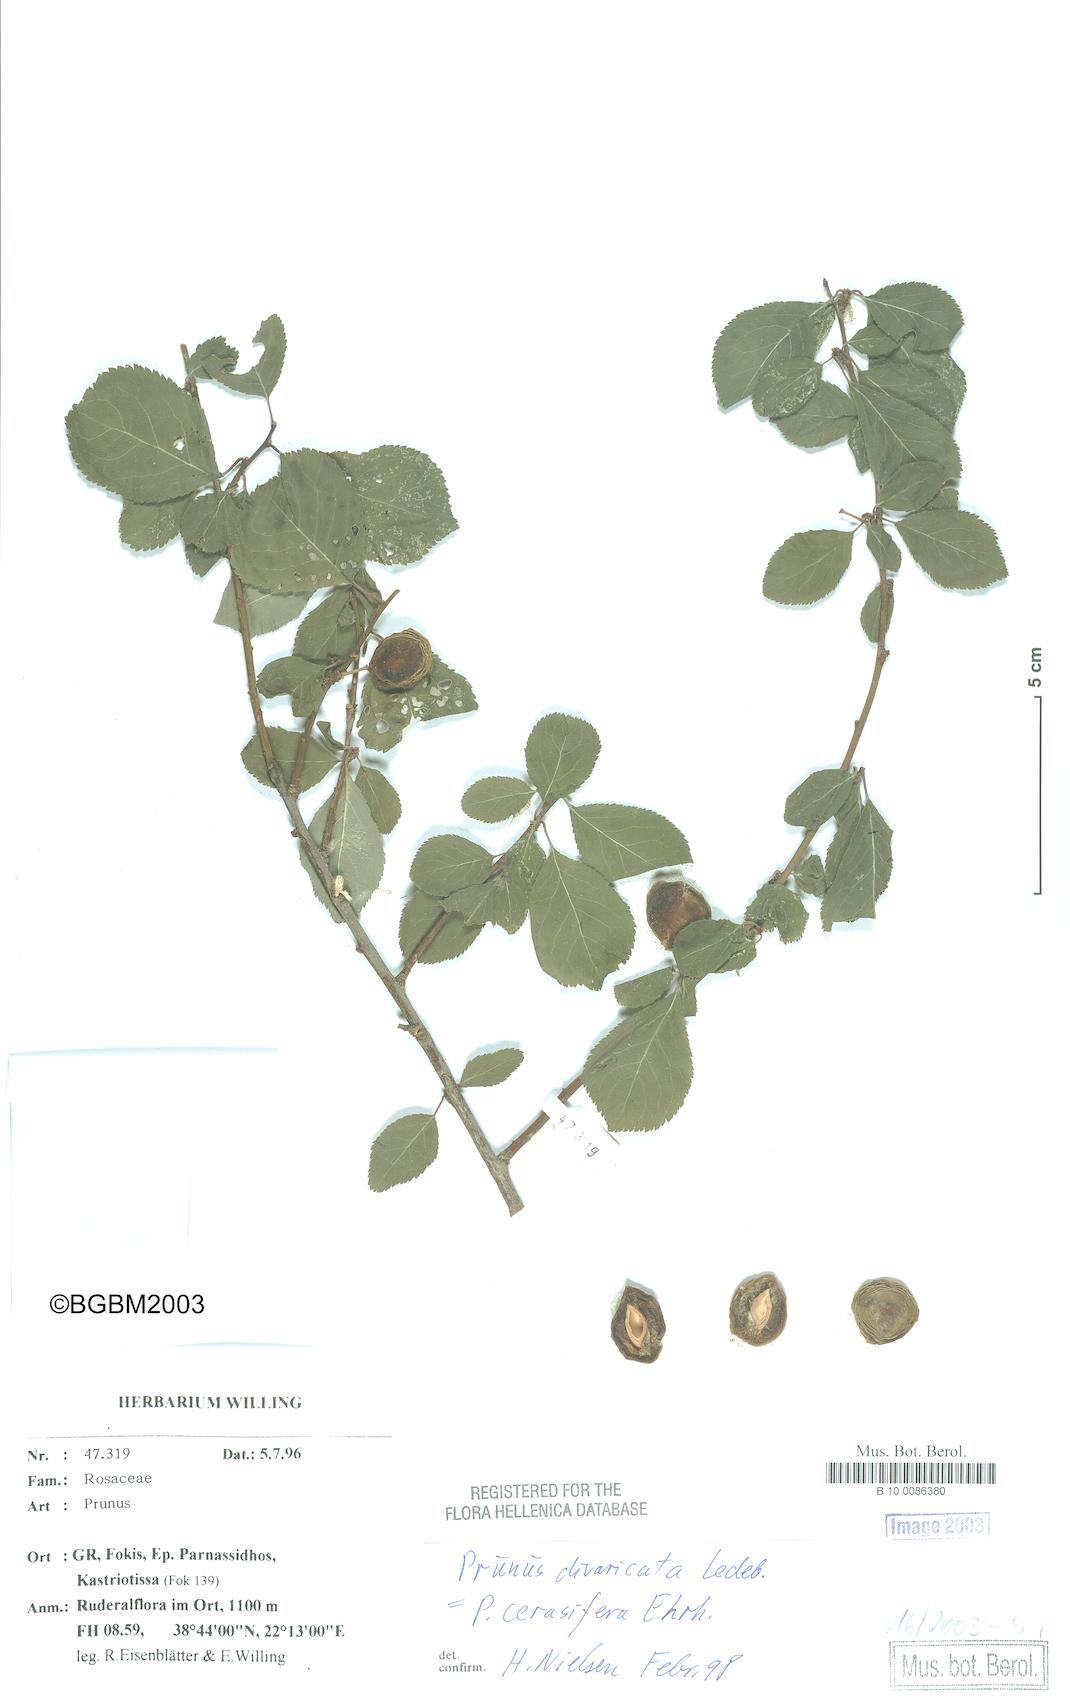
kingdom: Plantae
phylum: Tracheophyta
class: Magnoliopsida
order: Rosales
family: Rosaceae
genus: Prunus
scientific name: Prunus cerasifera
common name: Cherry plum
